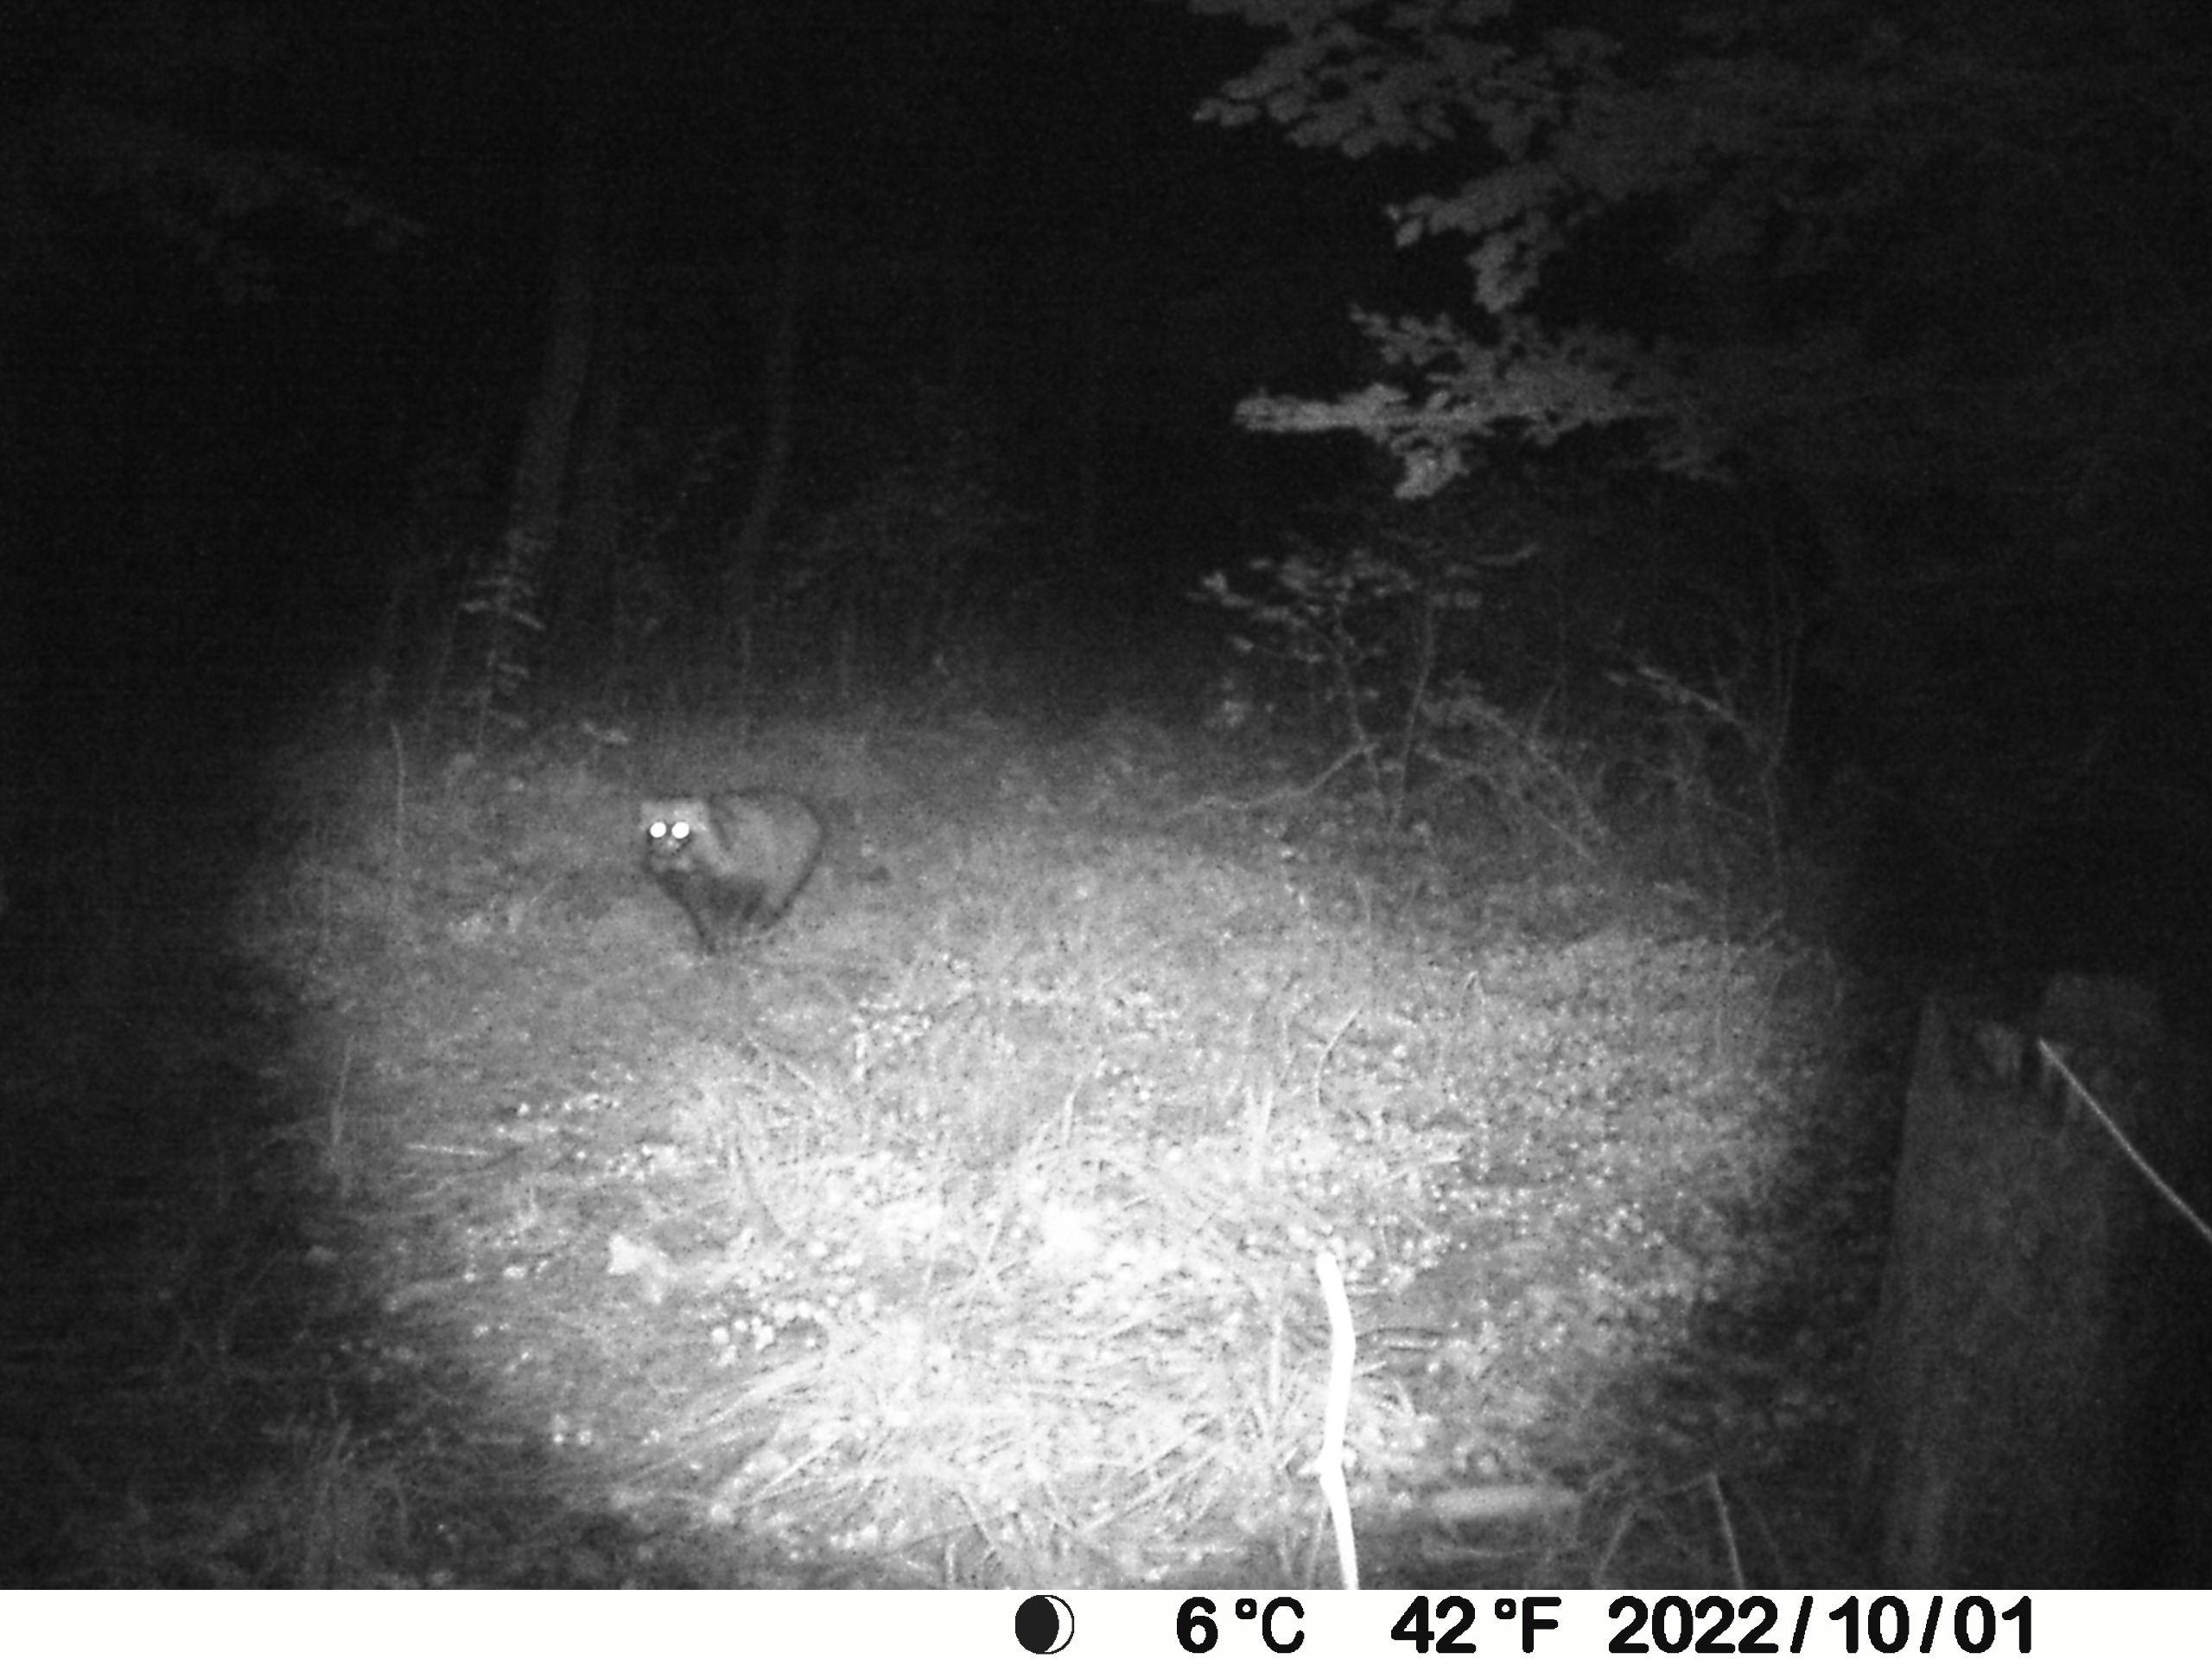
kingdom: Animalia
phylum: Chordata
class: Mammalia
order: Carnivora
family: Canidae
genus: Nyctereutes
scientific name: Nyctereutes procyonoides
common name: Mårhund
